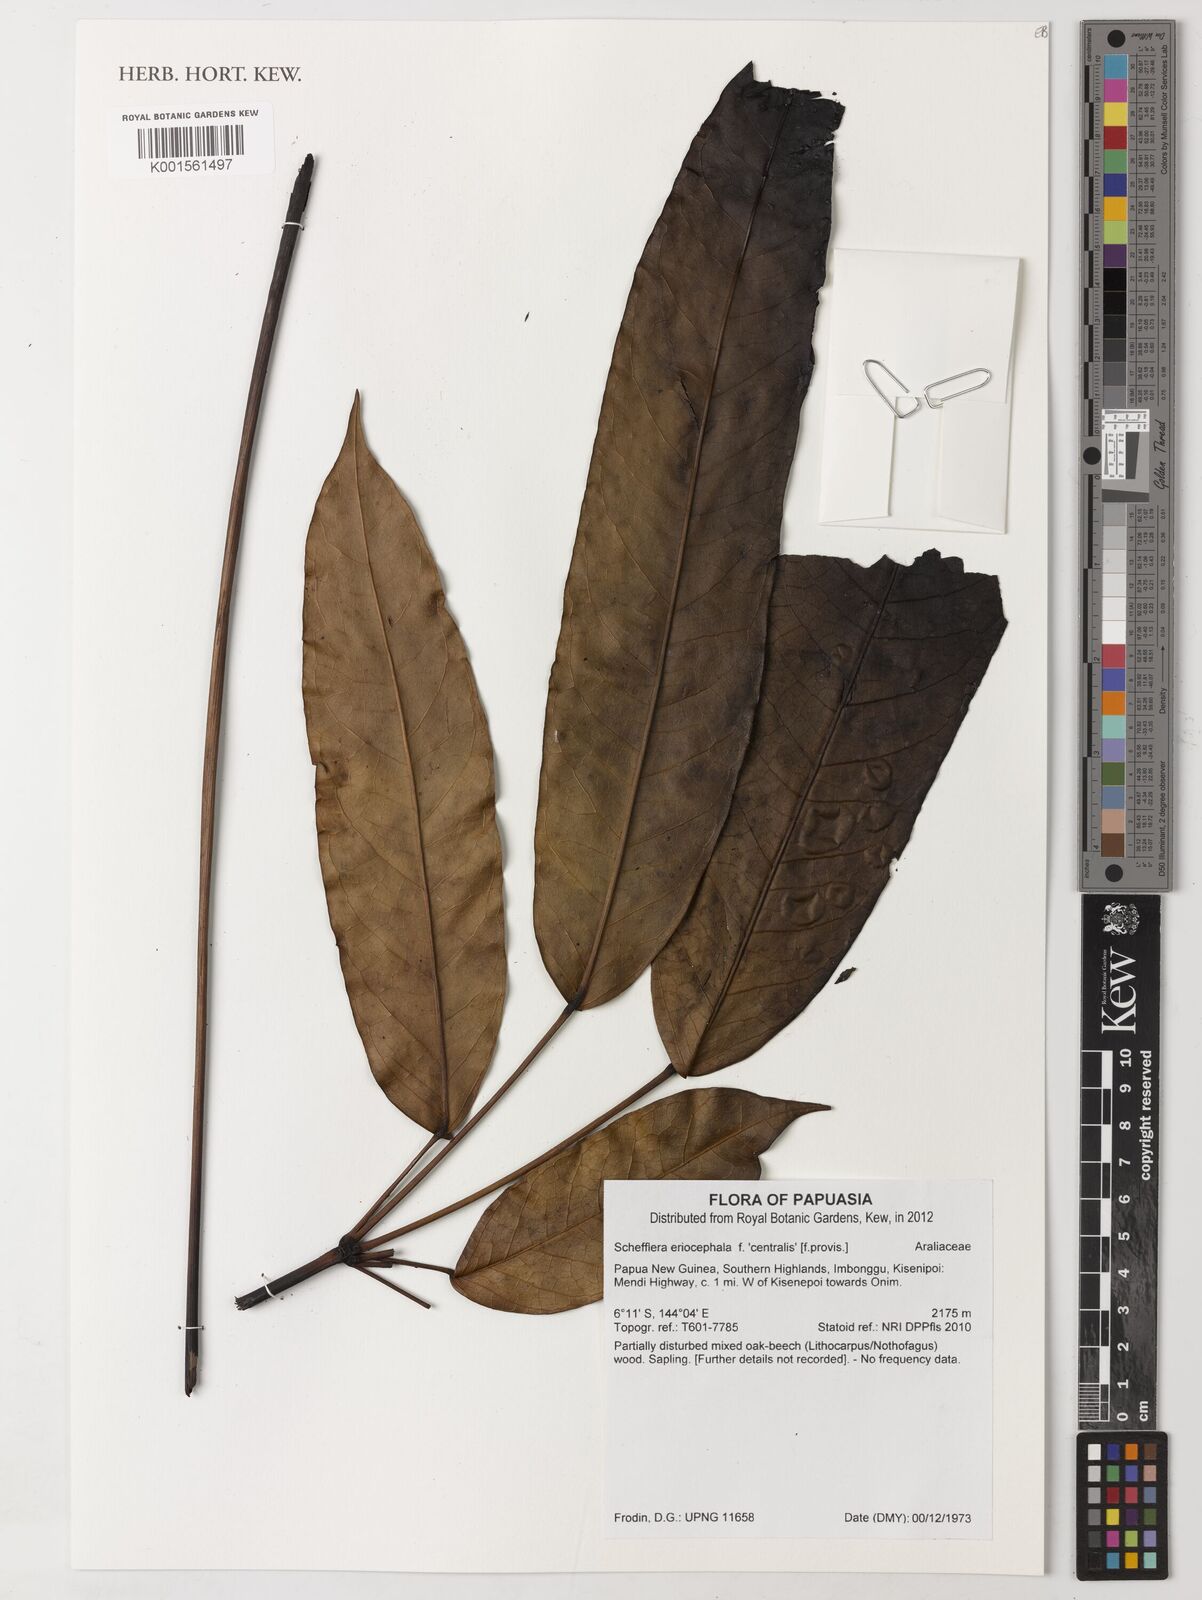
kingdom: Plantae
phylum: Tracheophyta
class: Magnoliopsida
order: Apiales
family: Araliaceae
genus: Schefflera
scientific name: Schefflera
